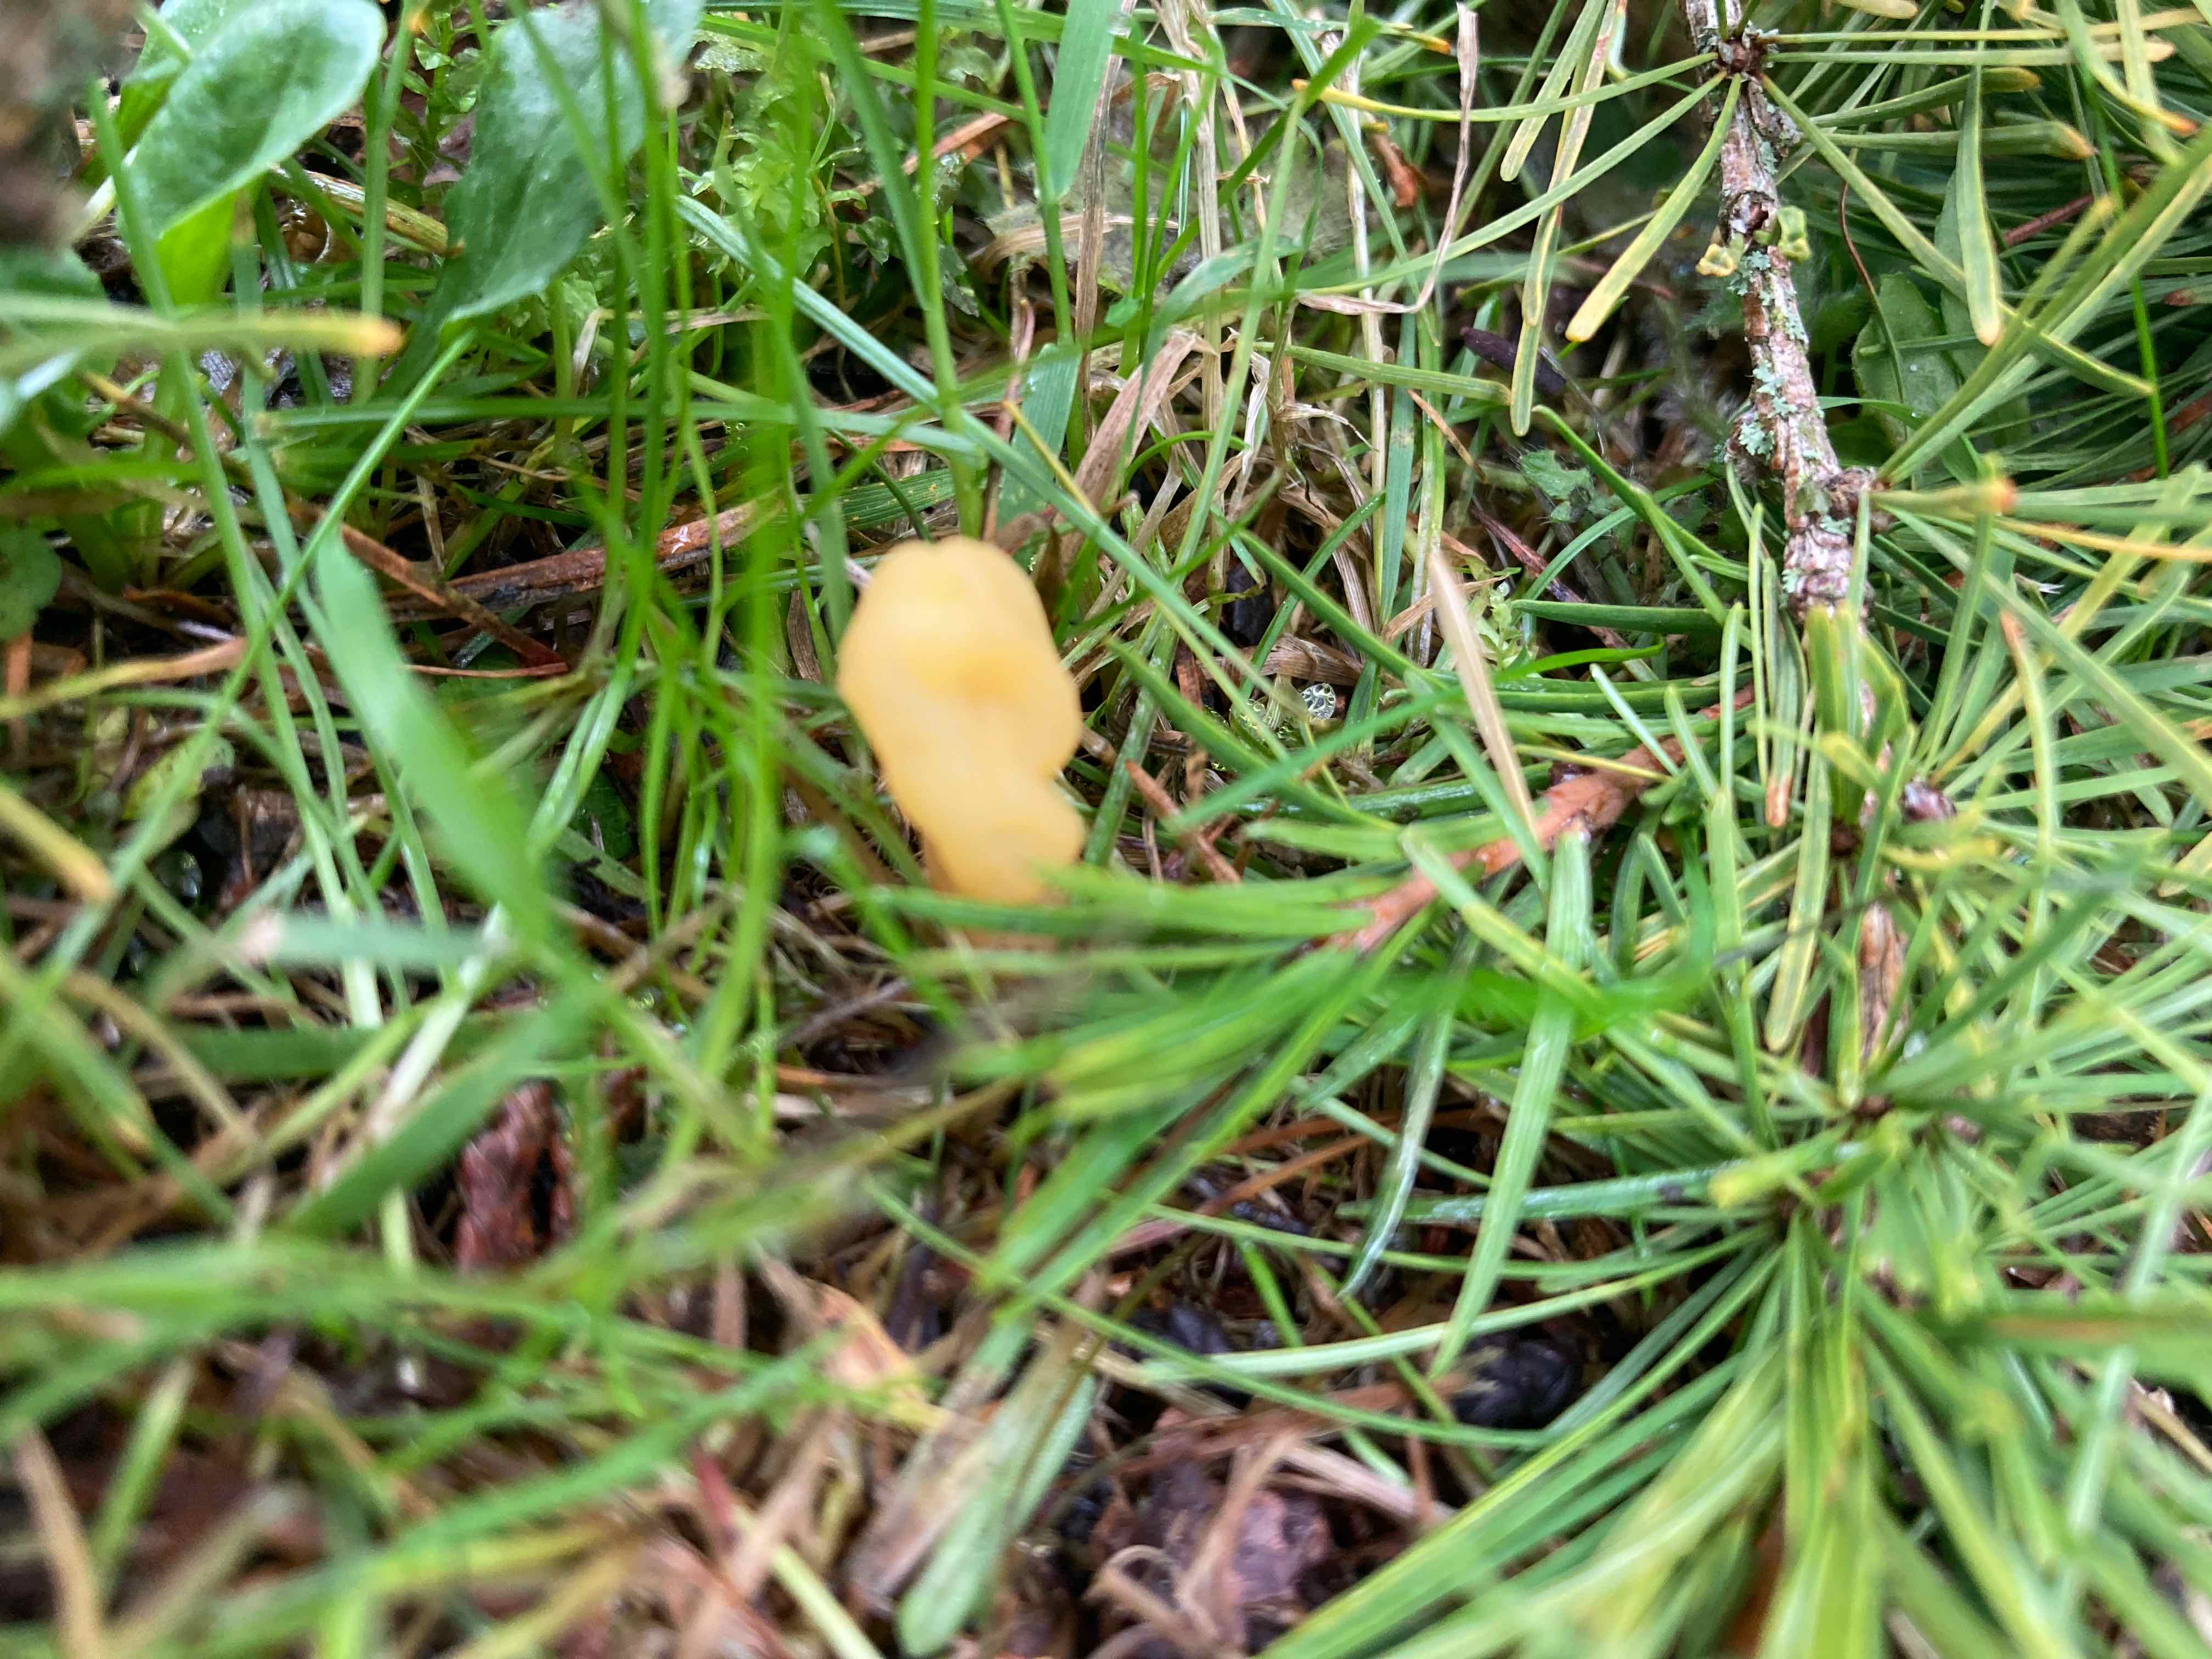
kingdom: Fungi
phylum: Ascomycota
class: Leotiomycetes
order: Rhytismatales
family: Cudoniaceae
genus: Spathularia
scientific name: Spathularia flavida
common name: gul spatelsvamp
